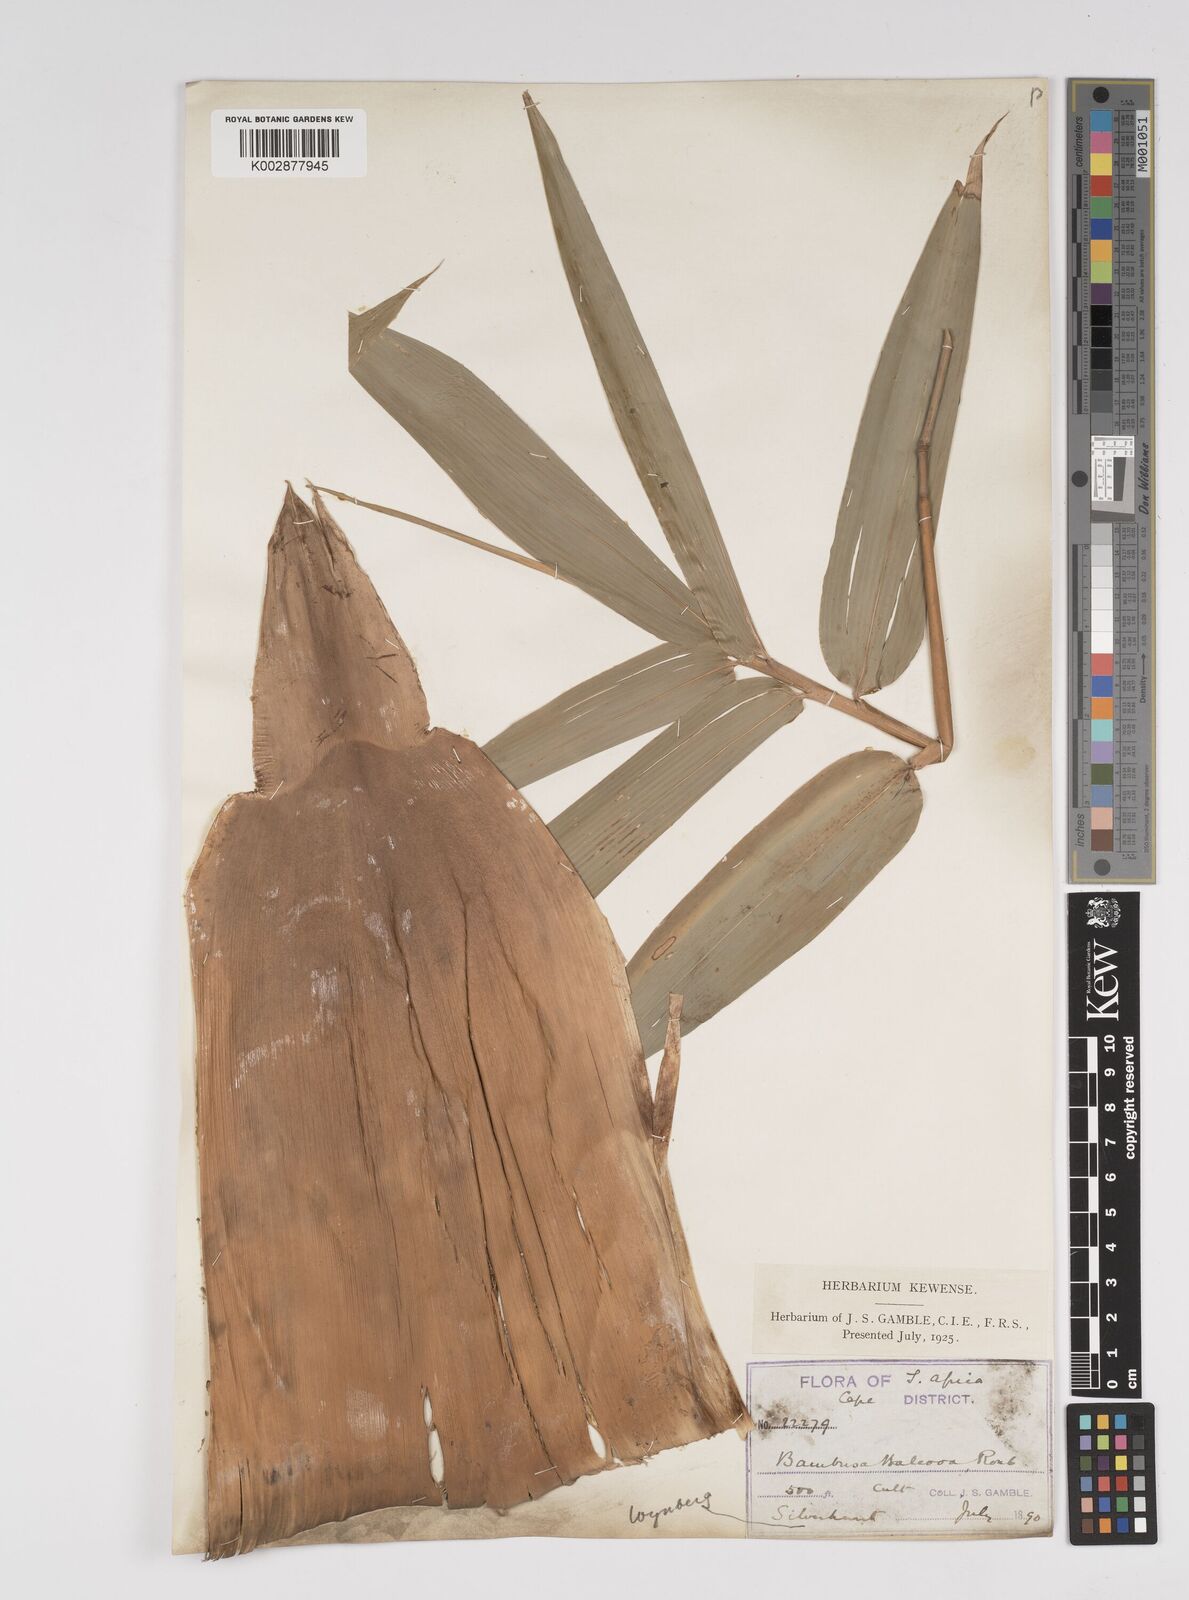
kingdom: Plantae
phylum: Tracheophyta
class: Liliopsida
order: Poales
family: Poaceae
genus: Bambusa
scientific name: Bambusa balcooa
